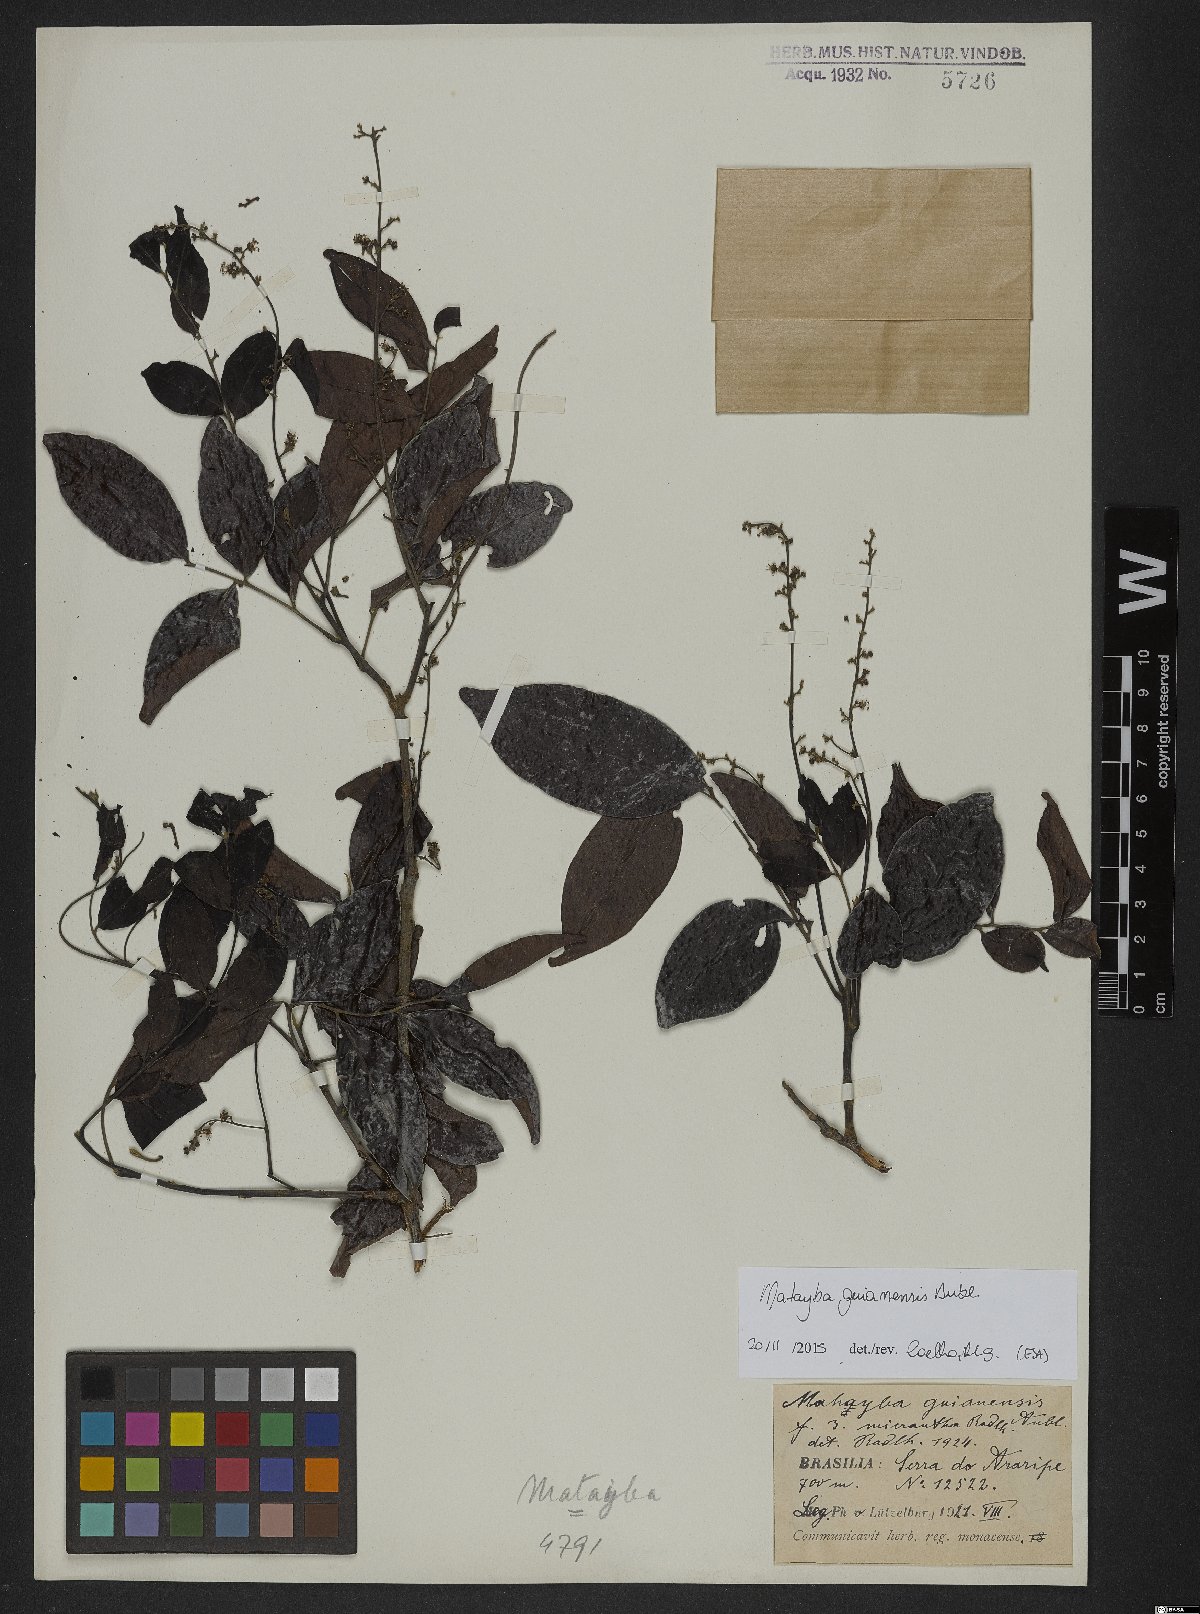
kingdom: Plantae
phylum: Tracheophyta
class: Magnoliopsida
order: Sapindales
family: Sapindaceae
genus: Matayba
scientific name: Matayba guianensis
